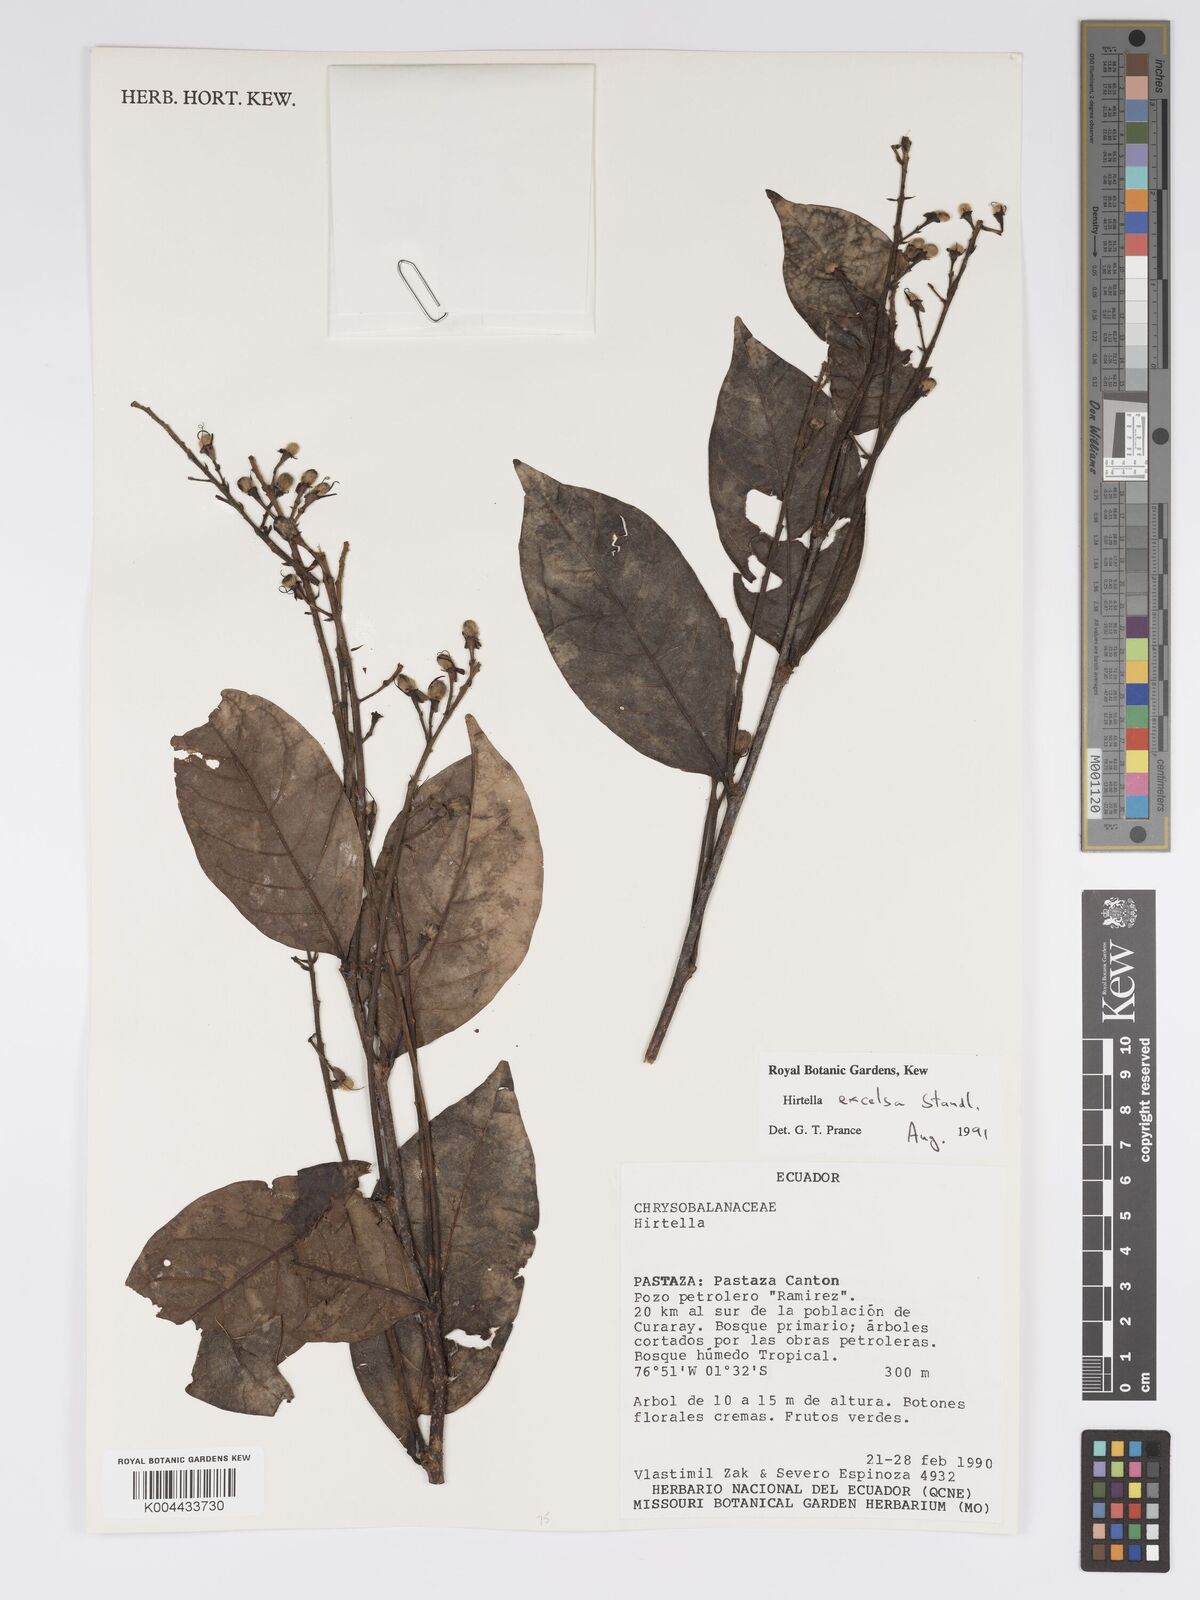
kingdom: Plantae
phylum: Tracheophyta
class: Magnoliopsida
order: Malpighiales
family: Chrysobalanaceae
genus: Hirtella
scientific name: Hirtella excelsa
